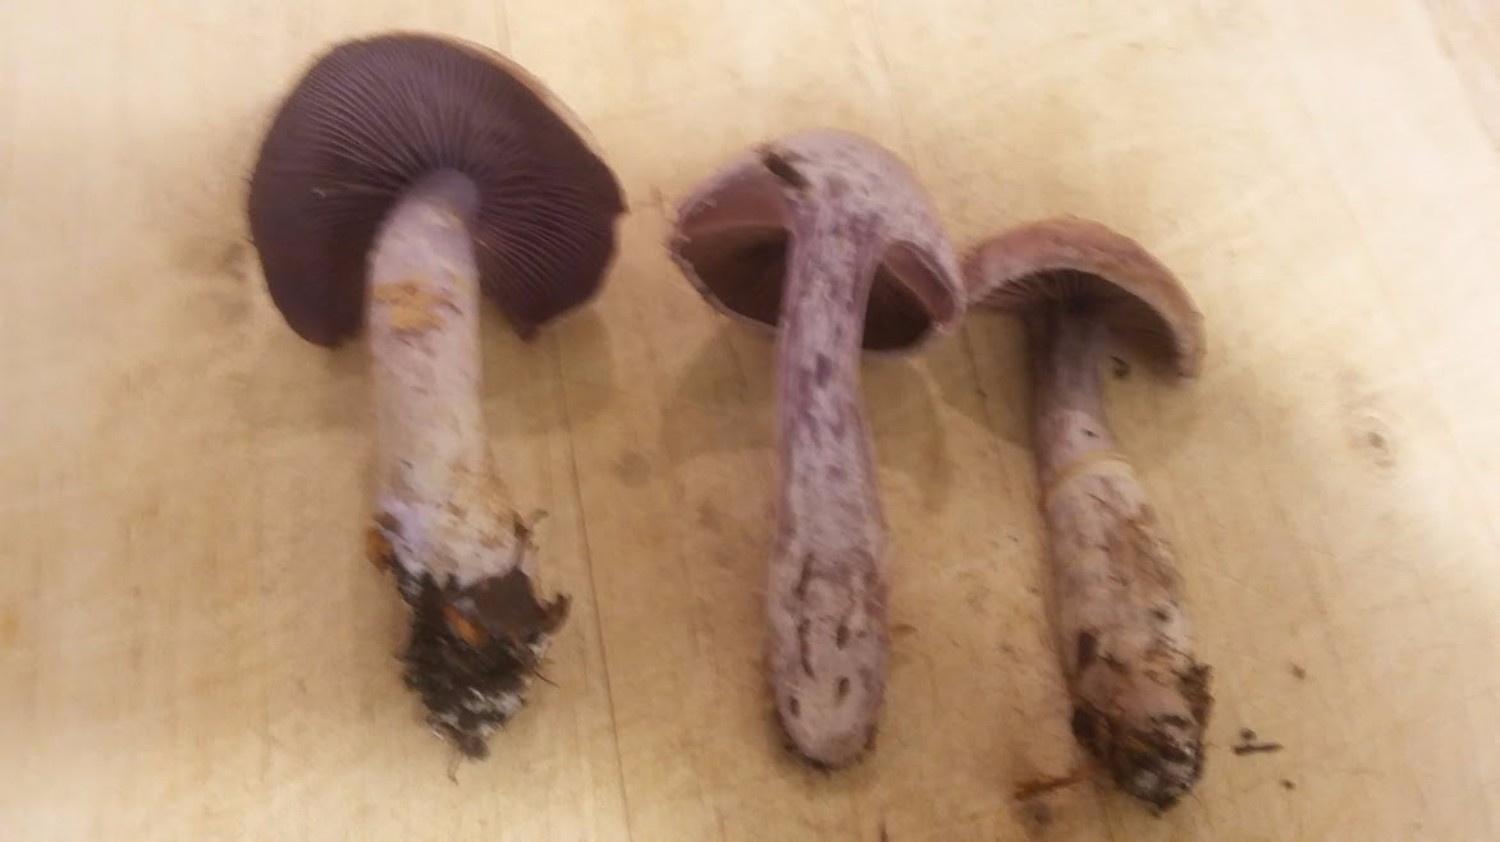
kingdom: Fungi
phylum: Basidiomycota
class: Agaricomycetes
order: Agaricales
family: Cortinariaceae
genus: Cortinarius
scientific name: Cortinarius
